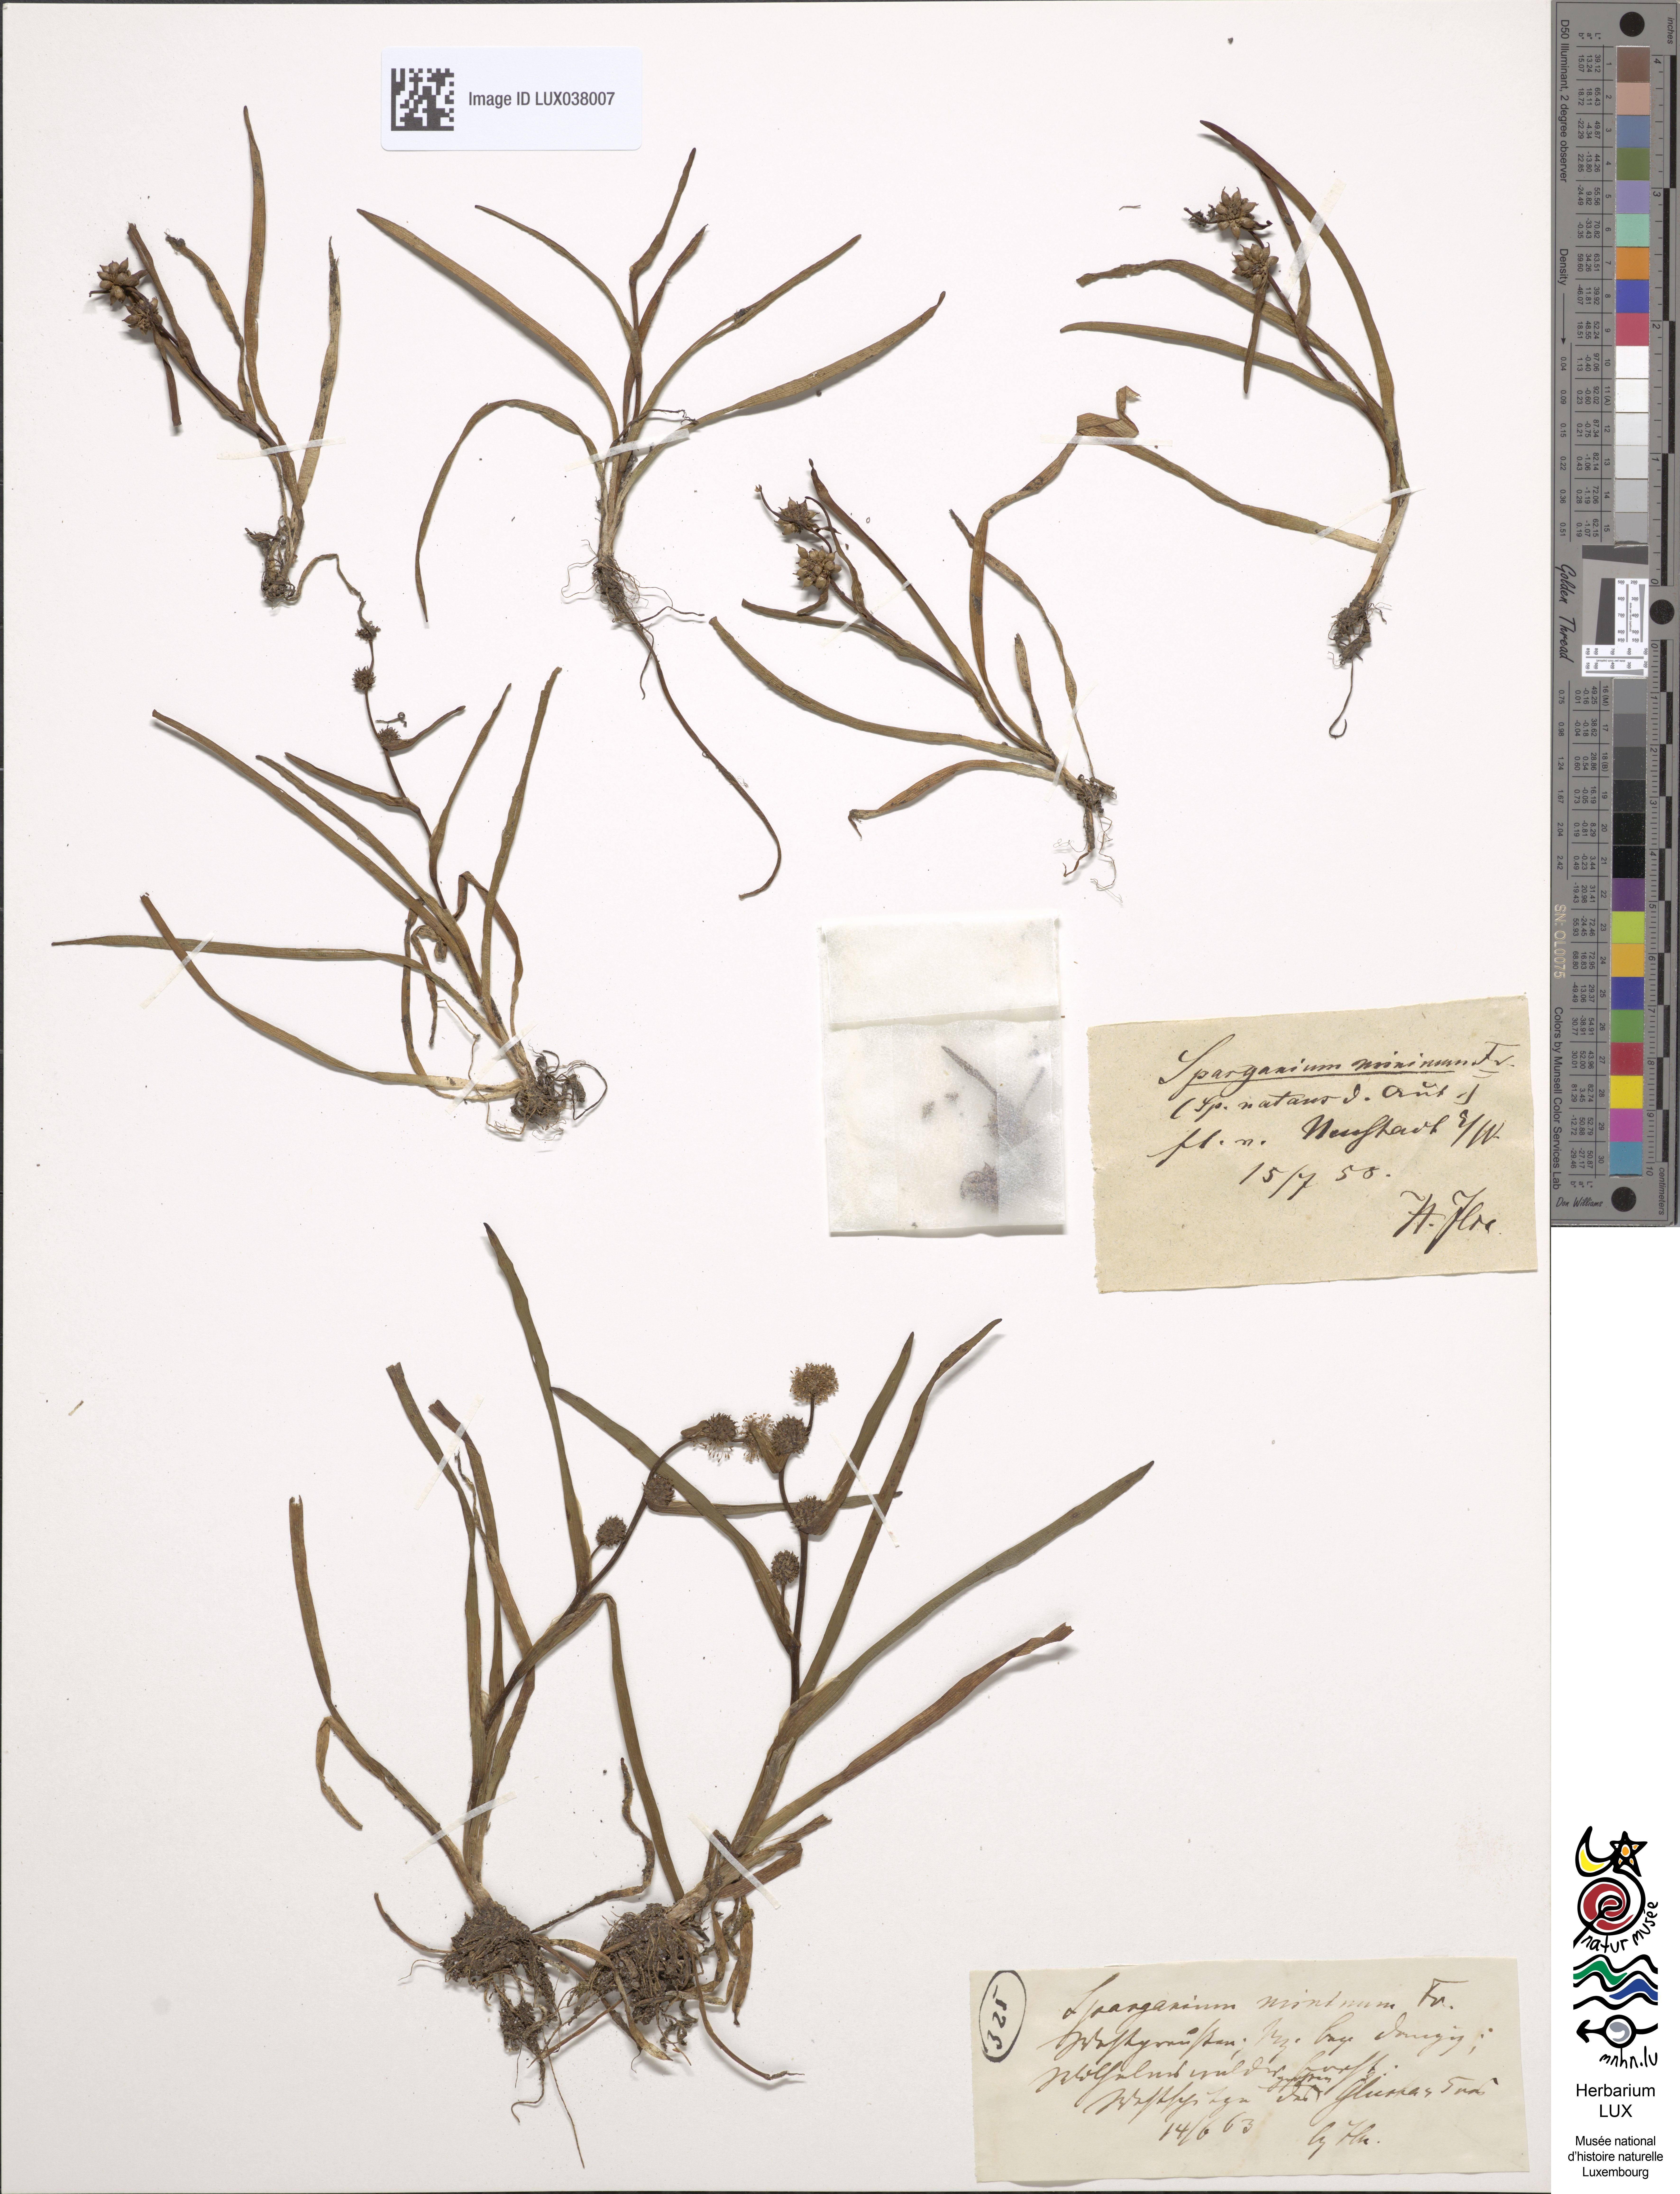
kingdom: Plantae
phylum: Tracheophyta
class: Liliopsida
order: Poales
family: Typhaceae
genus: Sparganium
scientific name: Sparganium natans
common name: Least bur-reed
